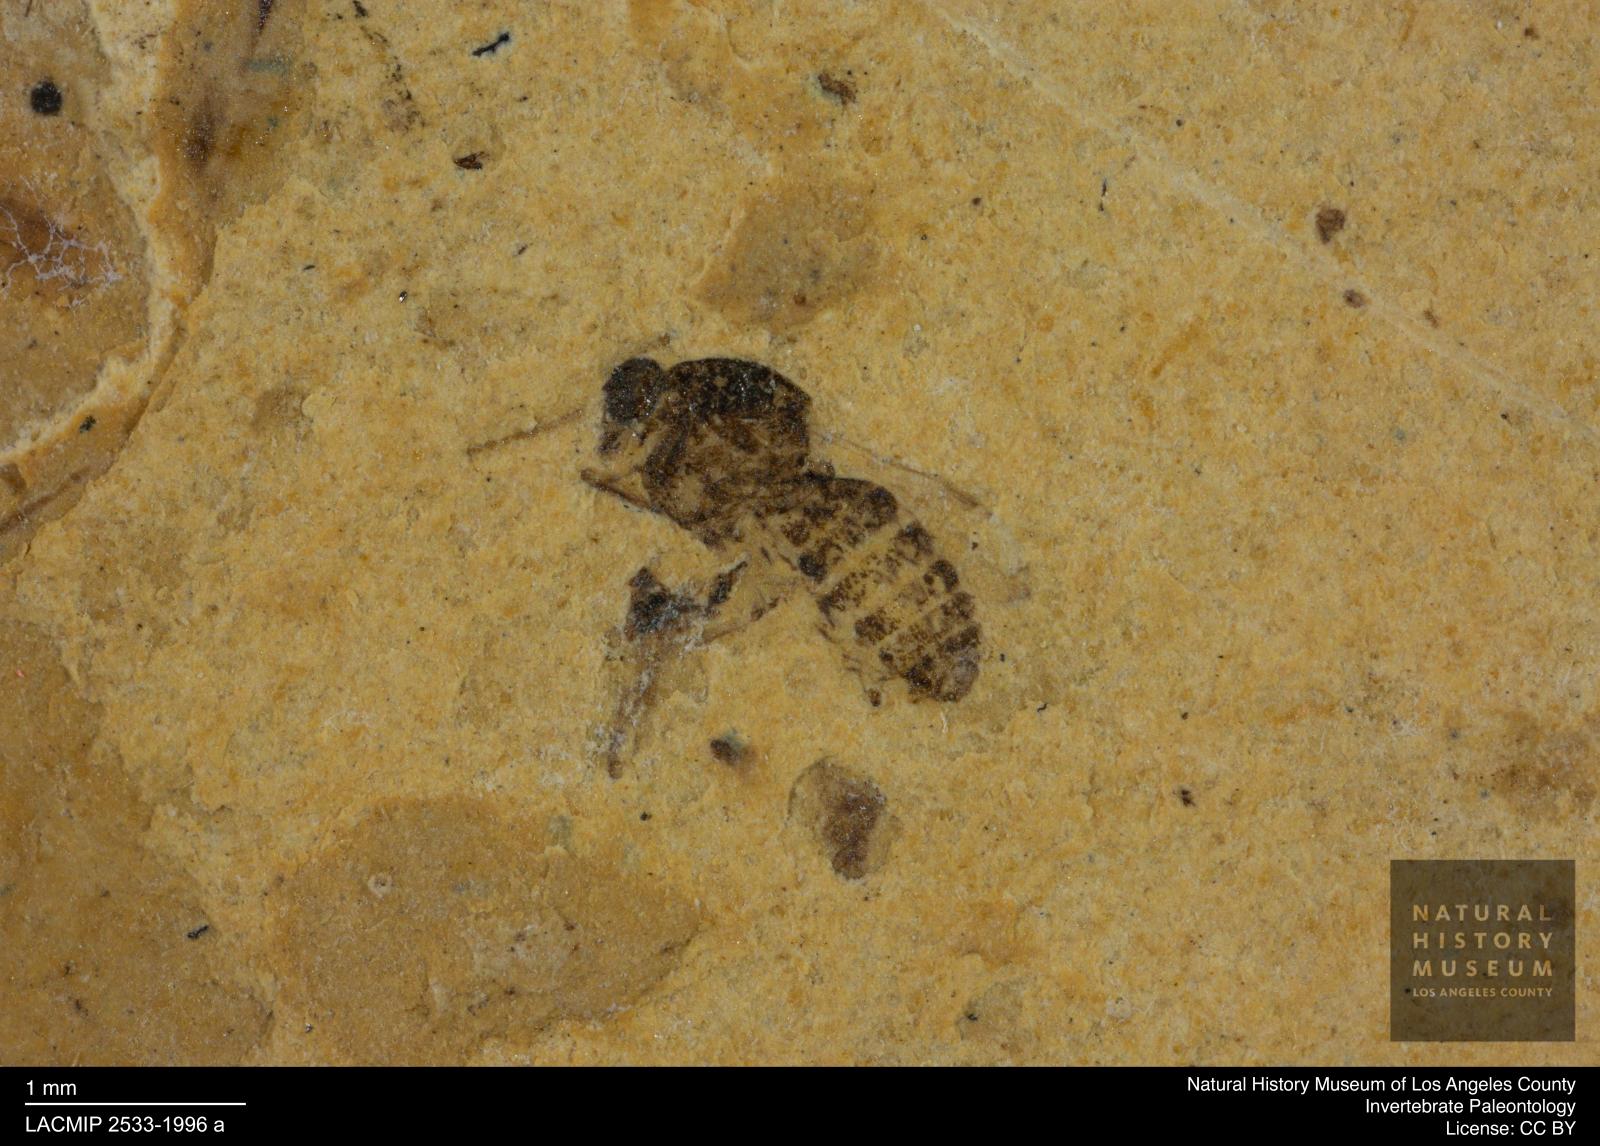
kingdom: Animalia
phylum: Arthropoda
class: Insecta
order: Diptera
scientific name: Diptera
